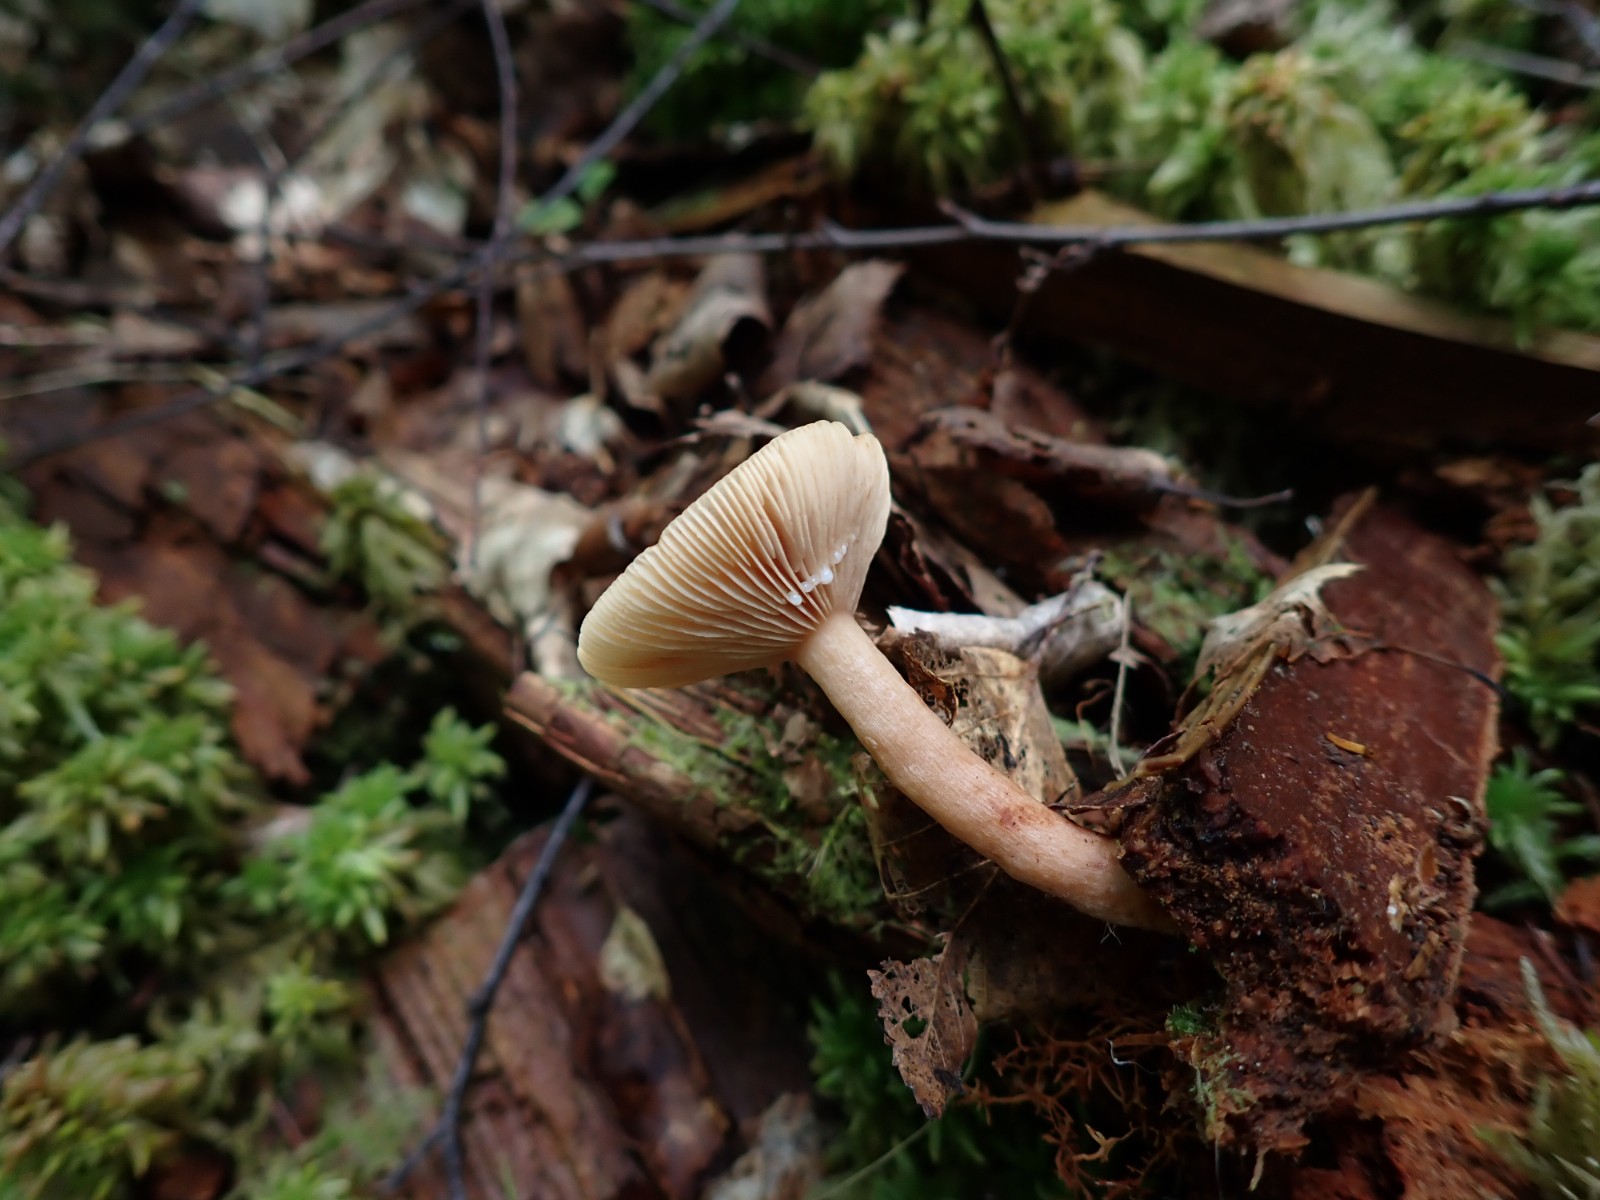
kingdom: Fungi
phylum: Basidiomycota
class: Agaricomycetes
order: Russulales
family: Russulaceae
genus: Lactarius
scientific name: Lactarius tabidus
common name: rynket mælkehat
